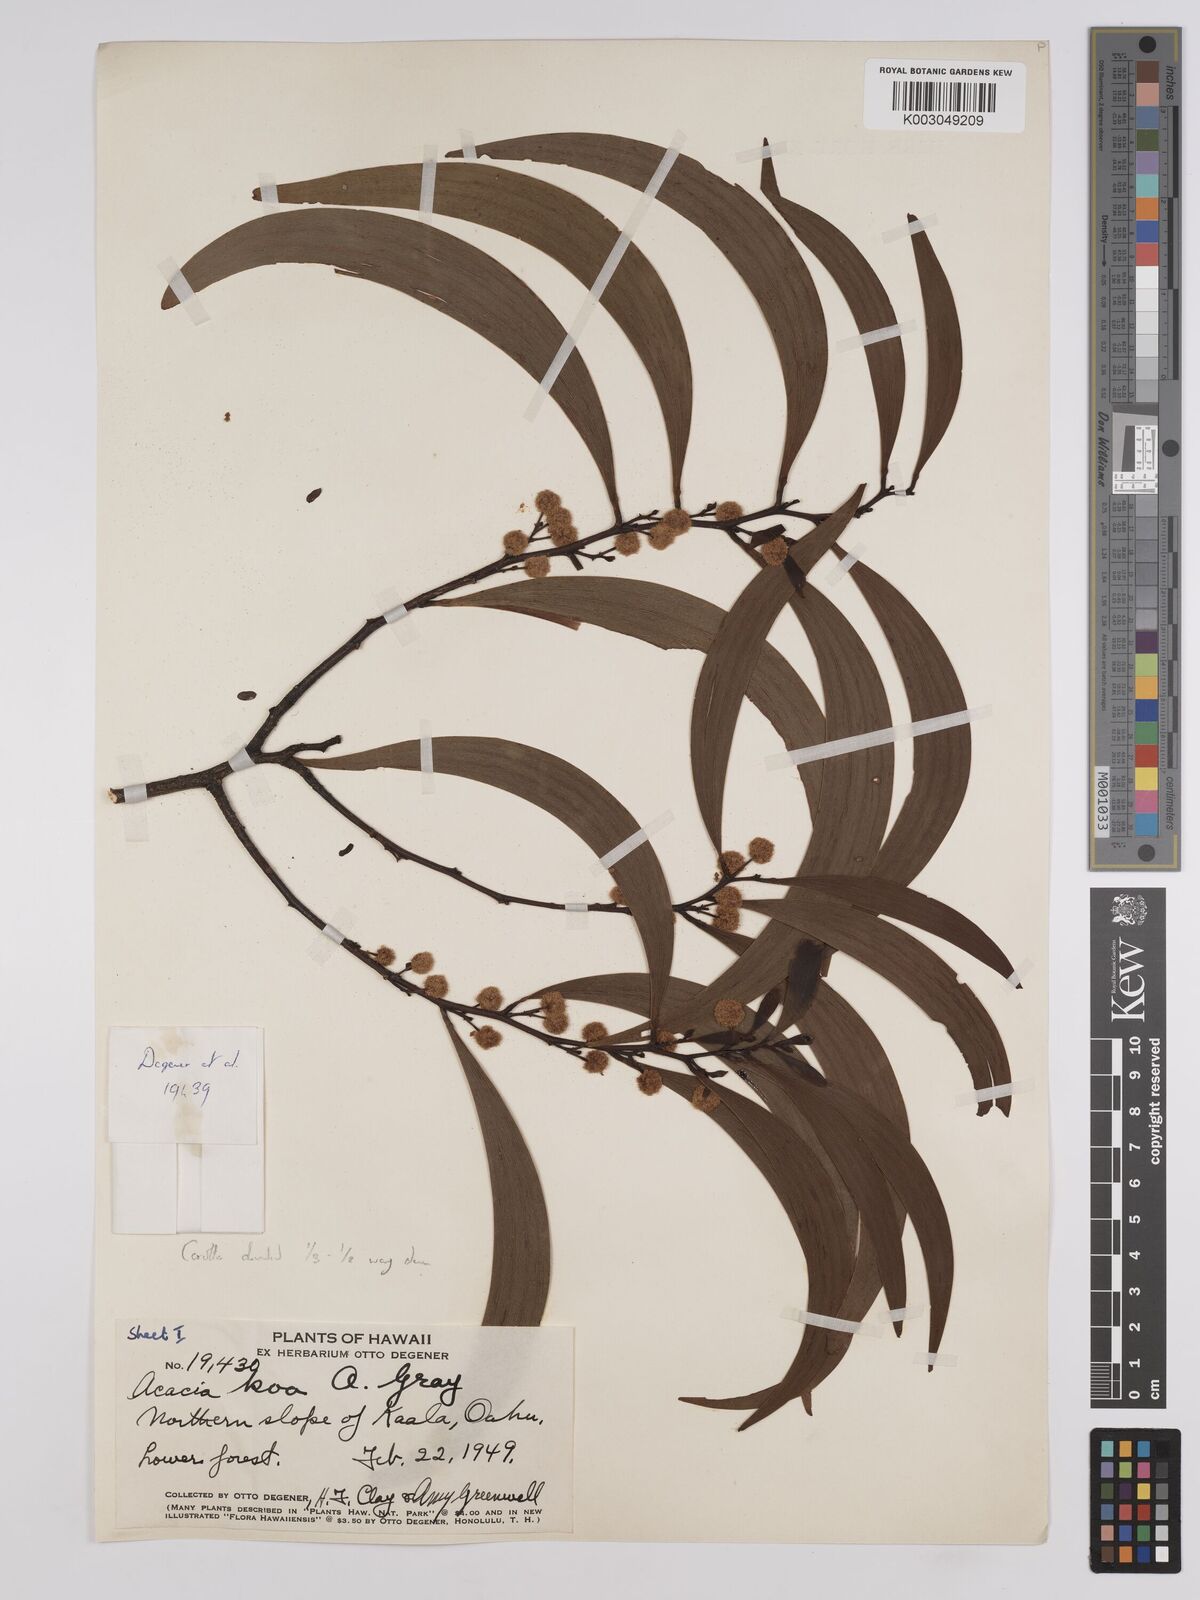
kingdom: Plantae
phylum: Tracheophyta
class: Magnoliopsida
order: Fabales
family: Fabaceae
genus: Acacia
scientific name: Acacia koa
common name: Gray koa
